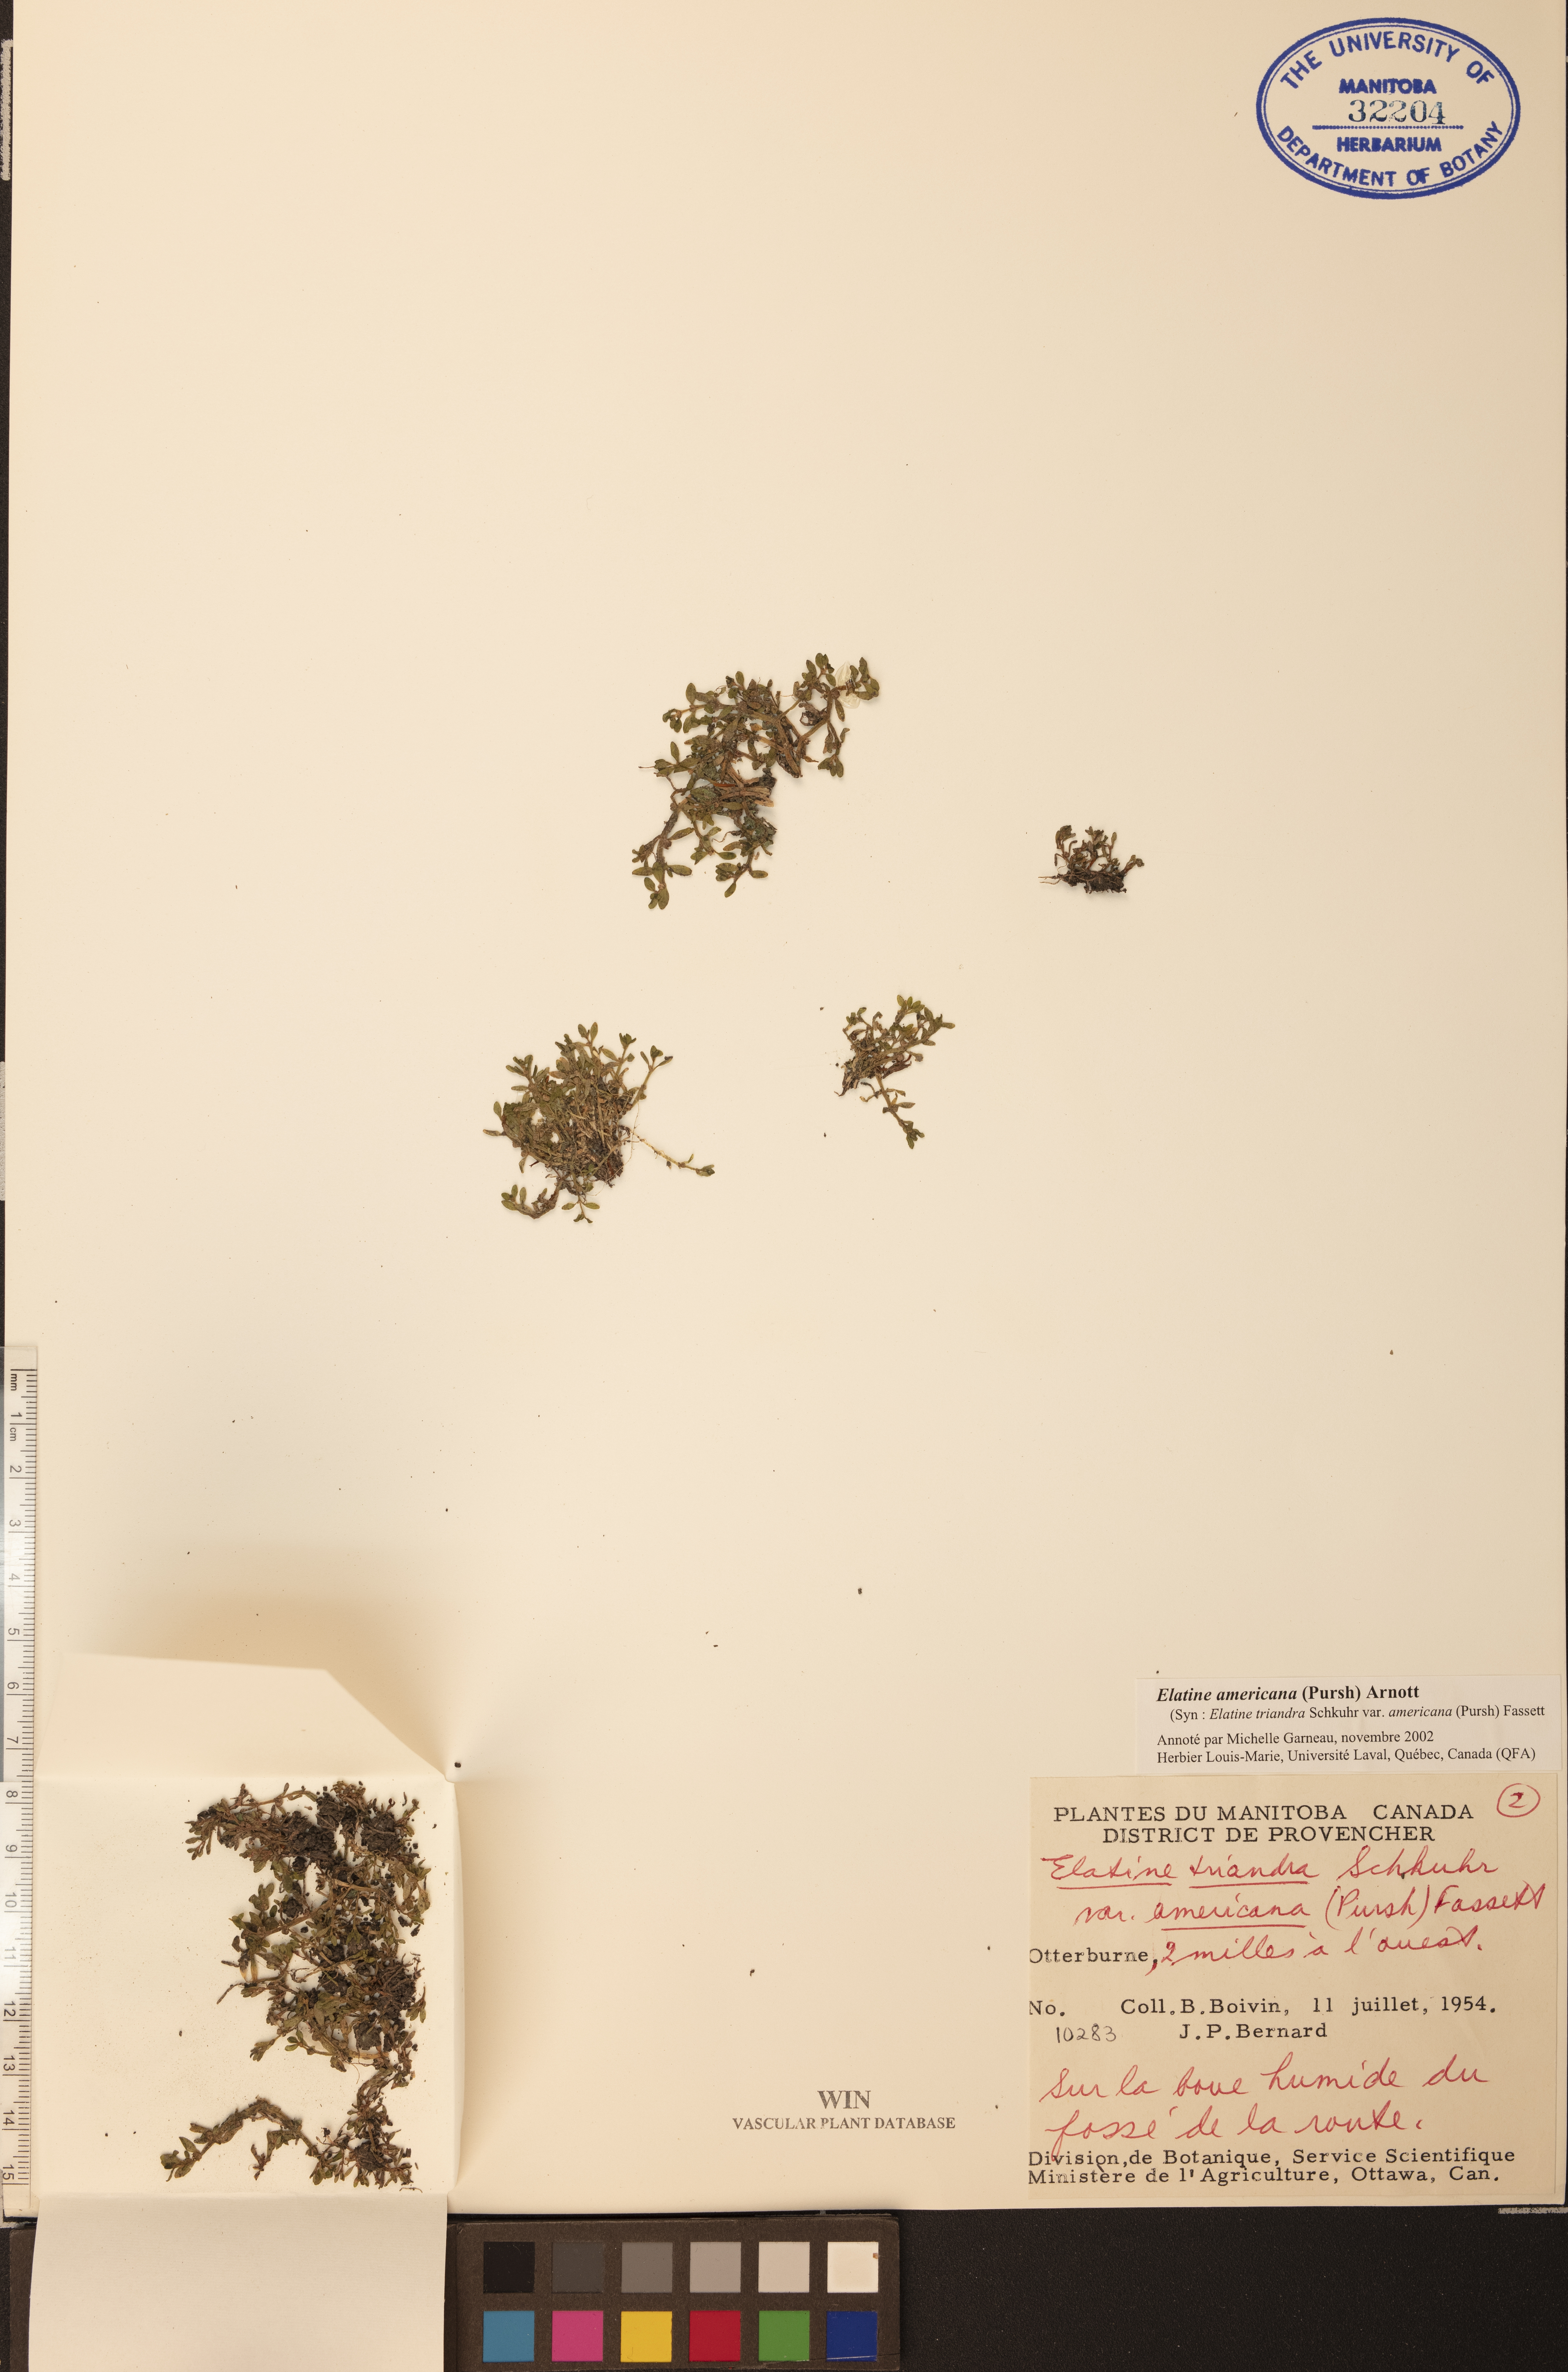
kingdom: Plantae
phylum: Tracheophyta
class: Magnoliopsida
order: Malpighiales
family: Elatinaceae
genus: Elatine
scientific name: Elatine americana
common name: American waterwort
